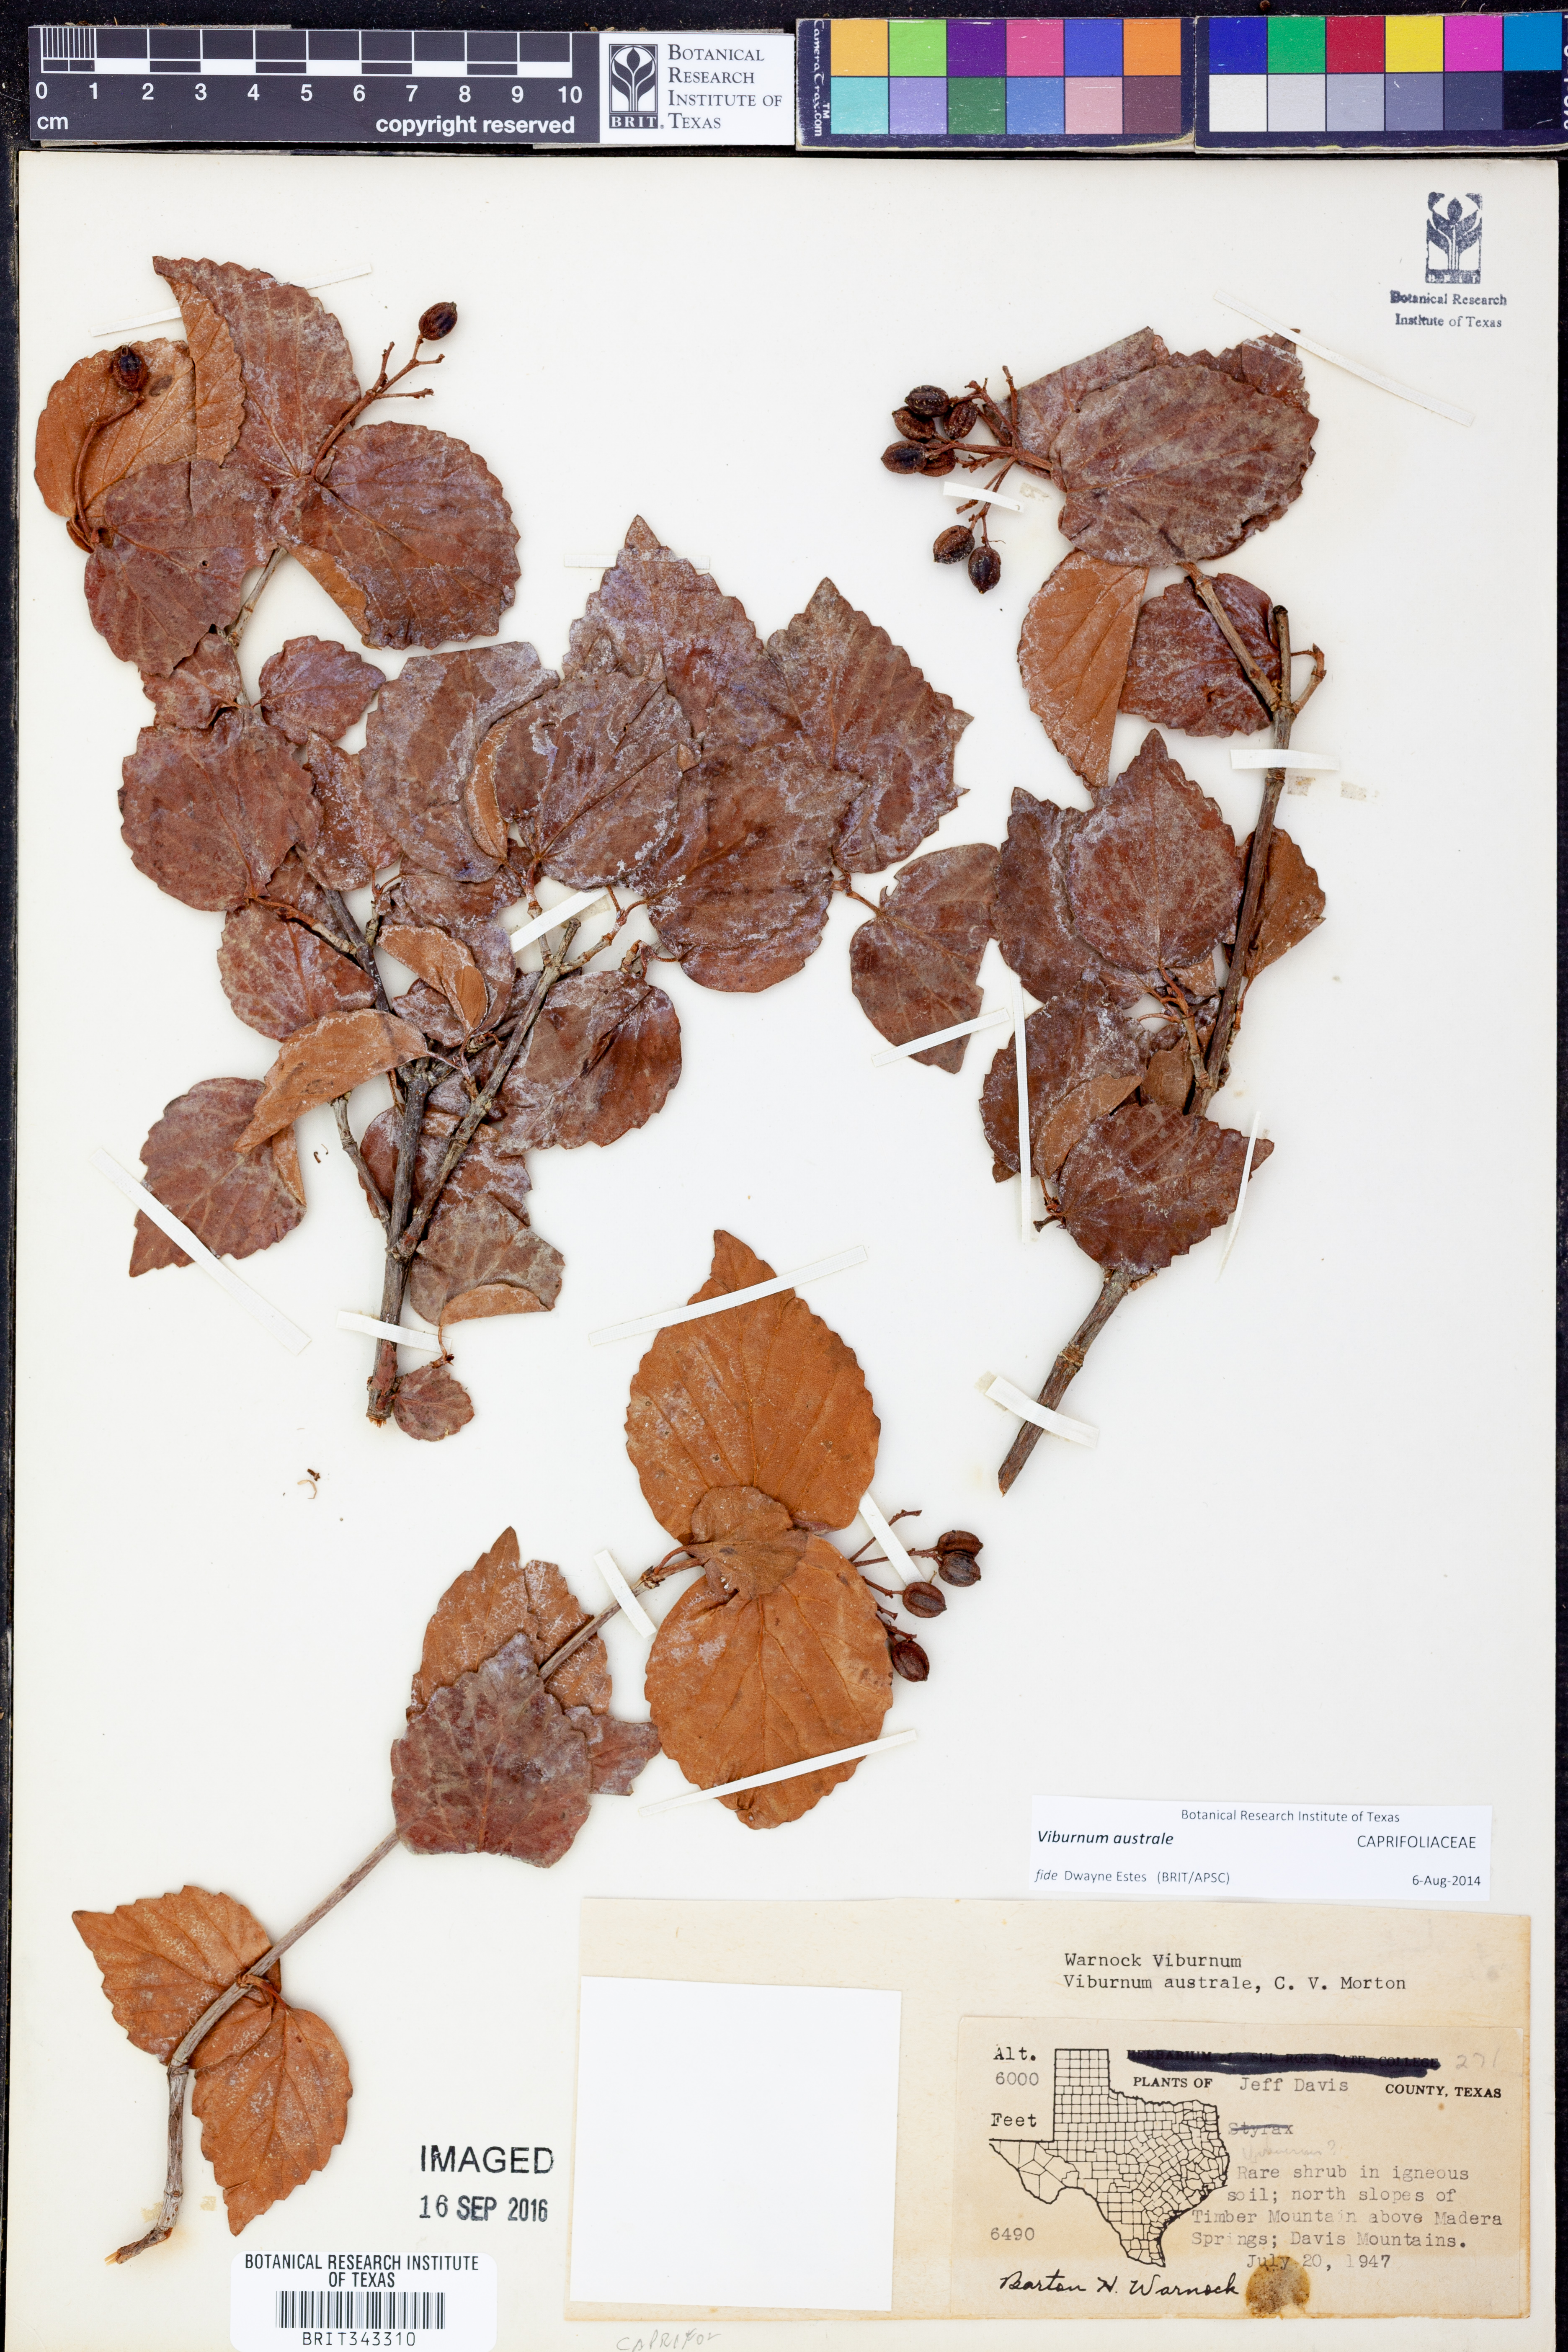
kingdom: Plantae
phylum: Tracheophyta
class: Magnoliopsida
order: Dipsacales
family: Viburnaceae
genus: Viburnum
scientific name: Viburnum australe
